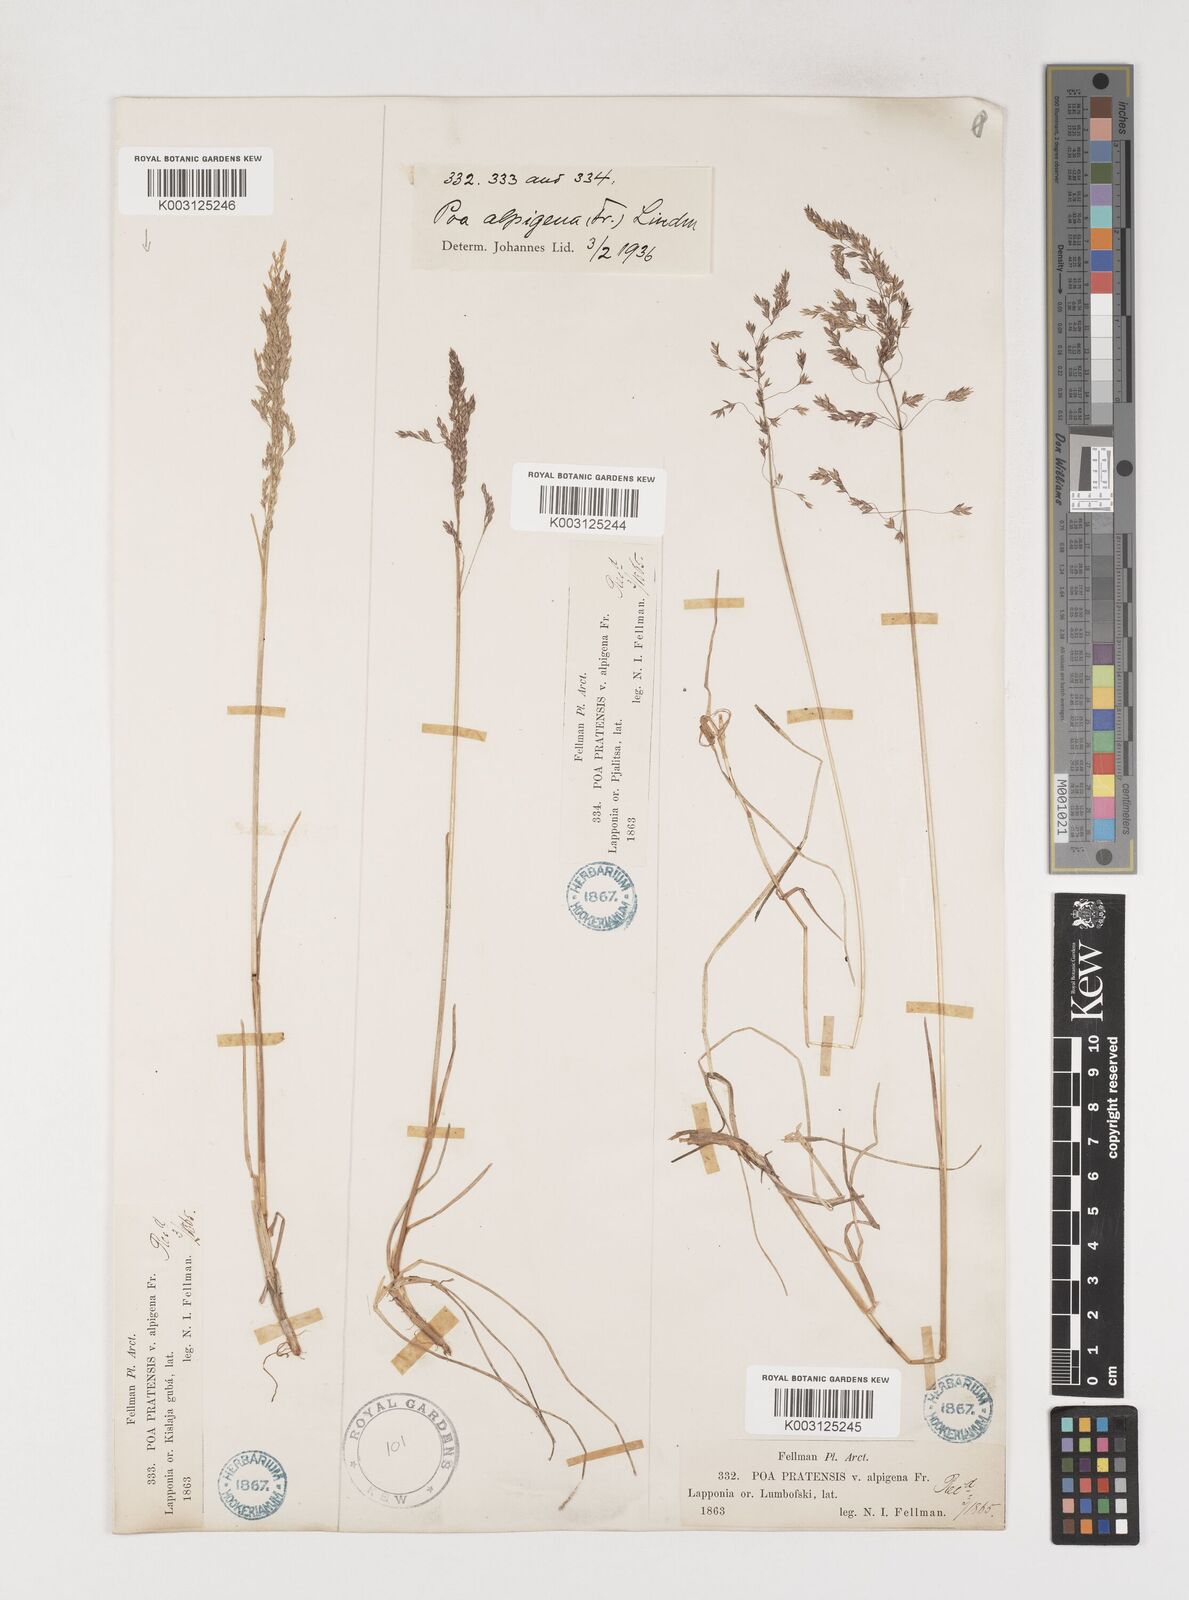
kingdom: Plantae
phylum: Tracheophyta
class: Liliopsida
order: Poales
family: Poaceae
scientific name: Poaceae
